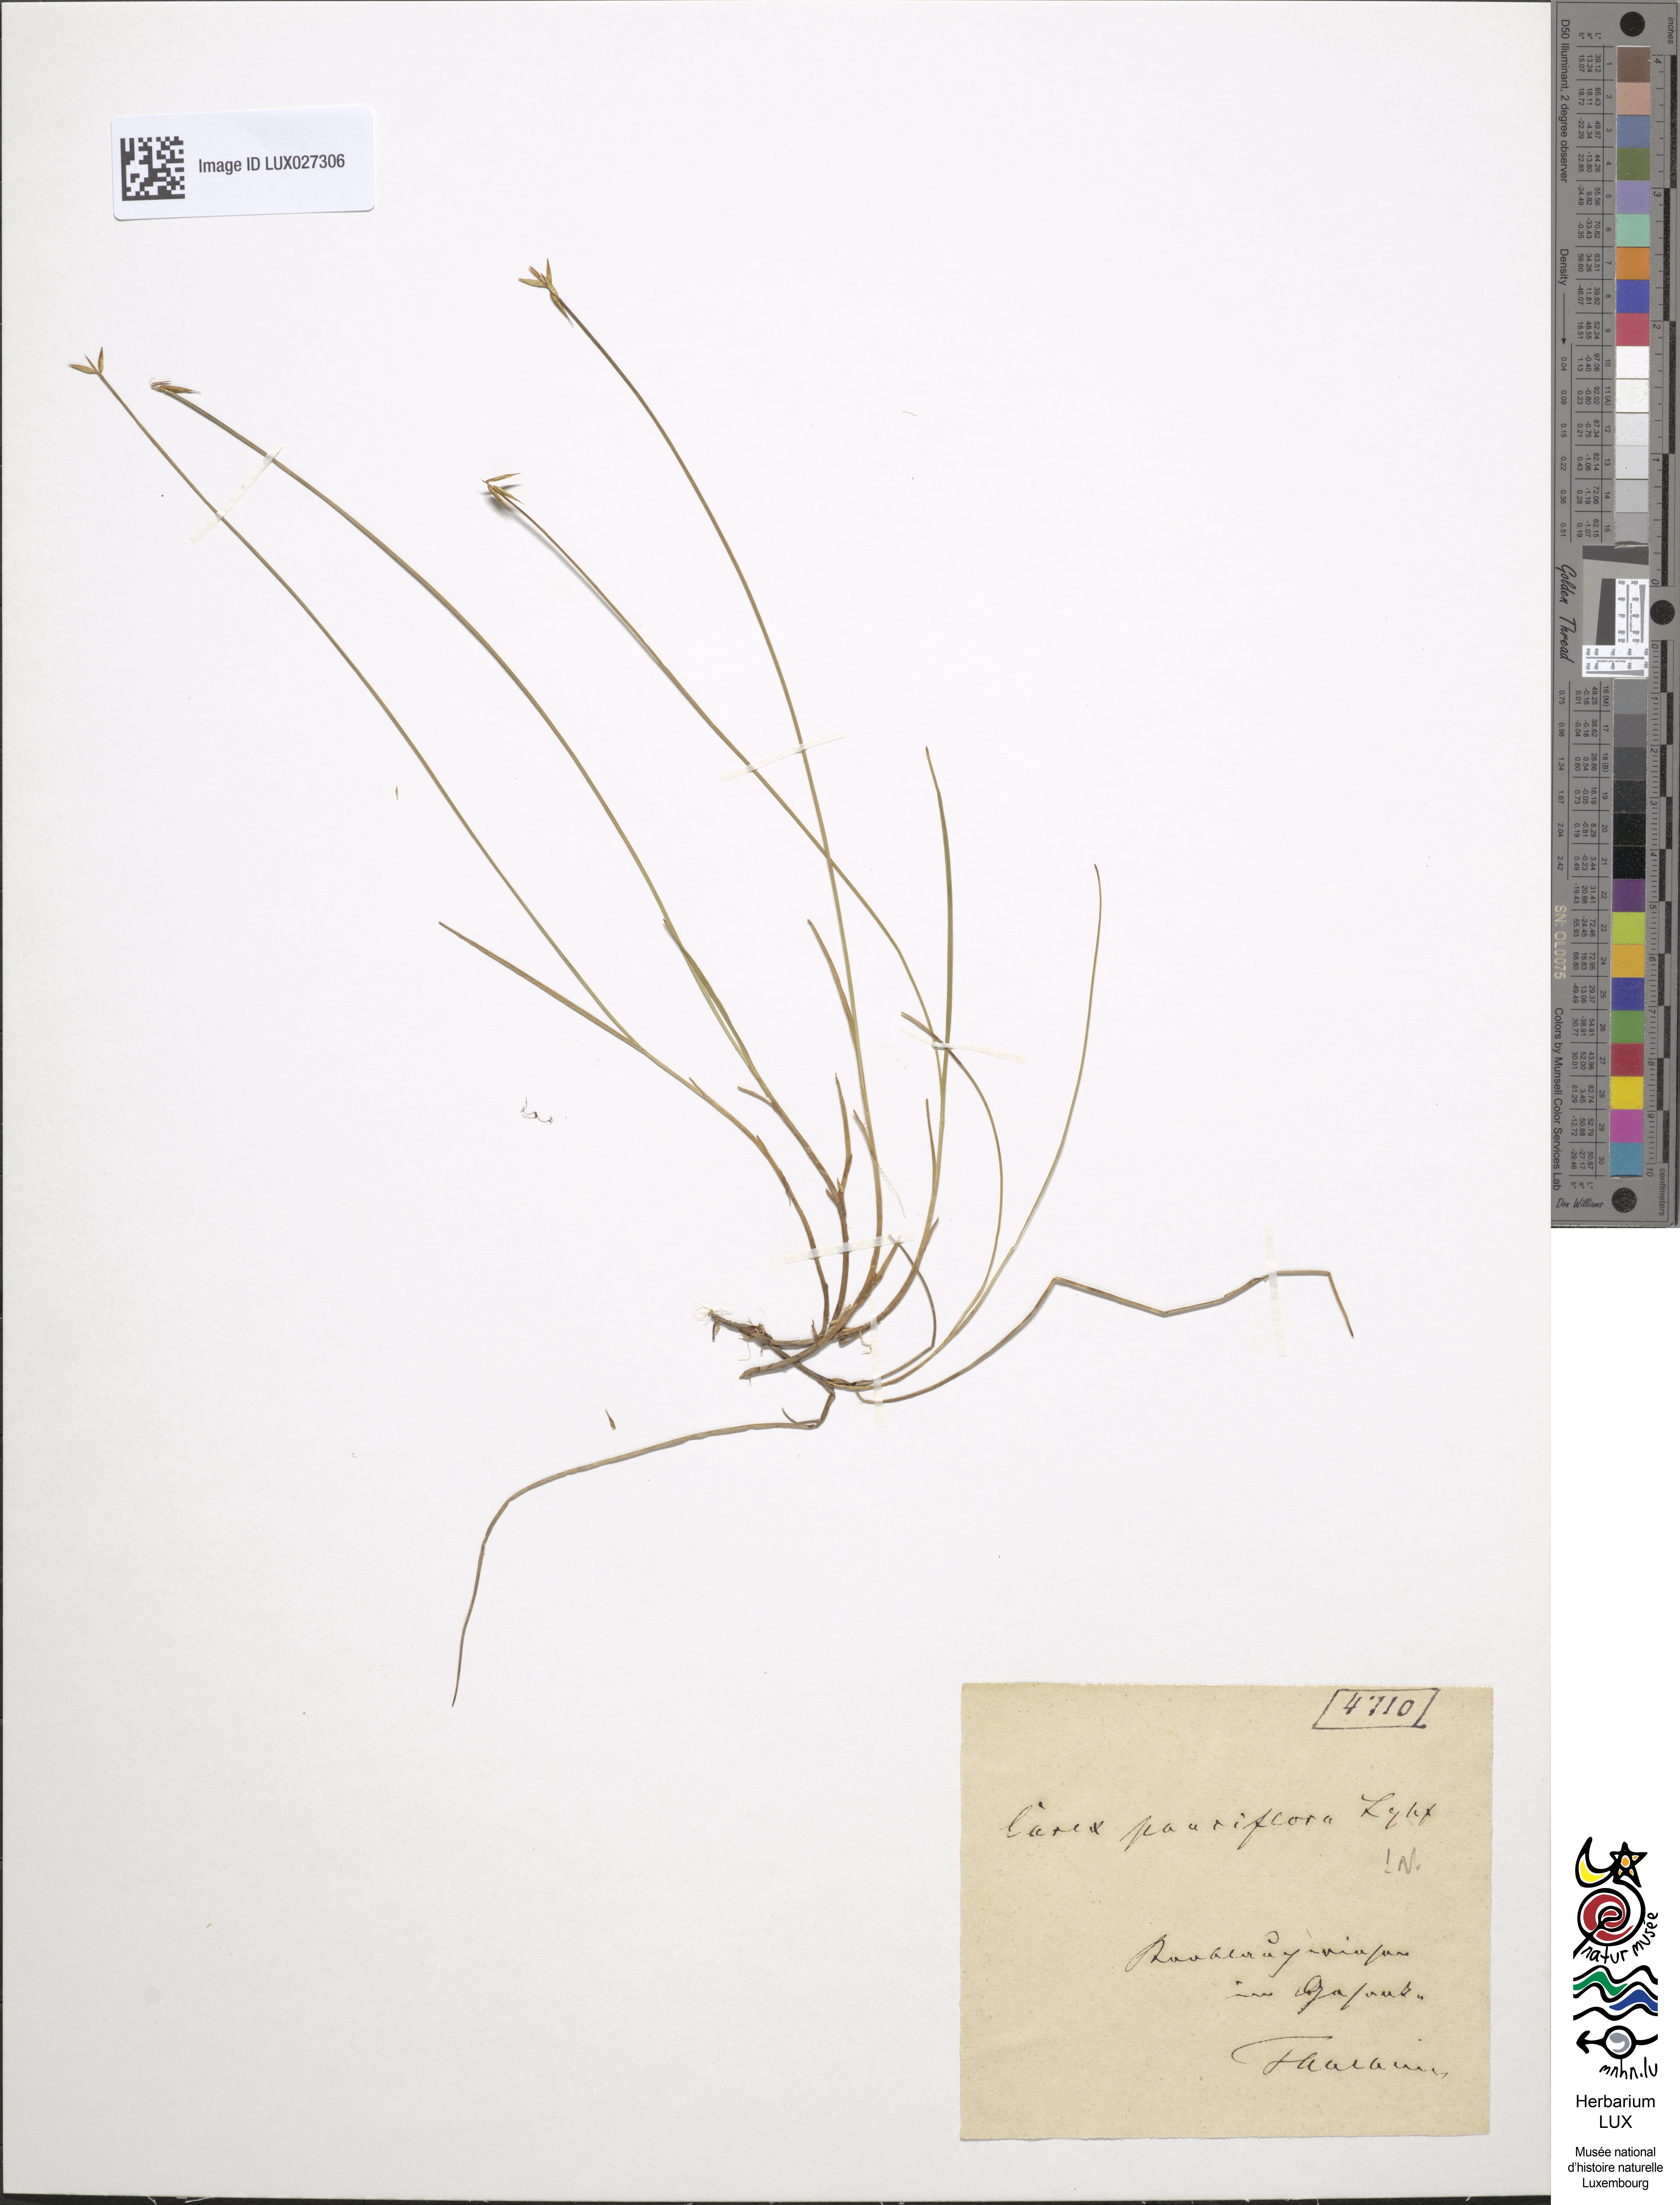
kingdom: Plantae
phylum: Tracheophyta
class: Liliopsida
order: Poales
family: Cyperaceae
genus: Carex
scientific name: Carex pauciflora
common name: Few-flowered sedge
